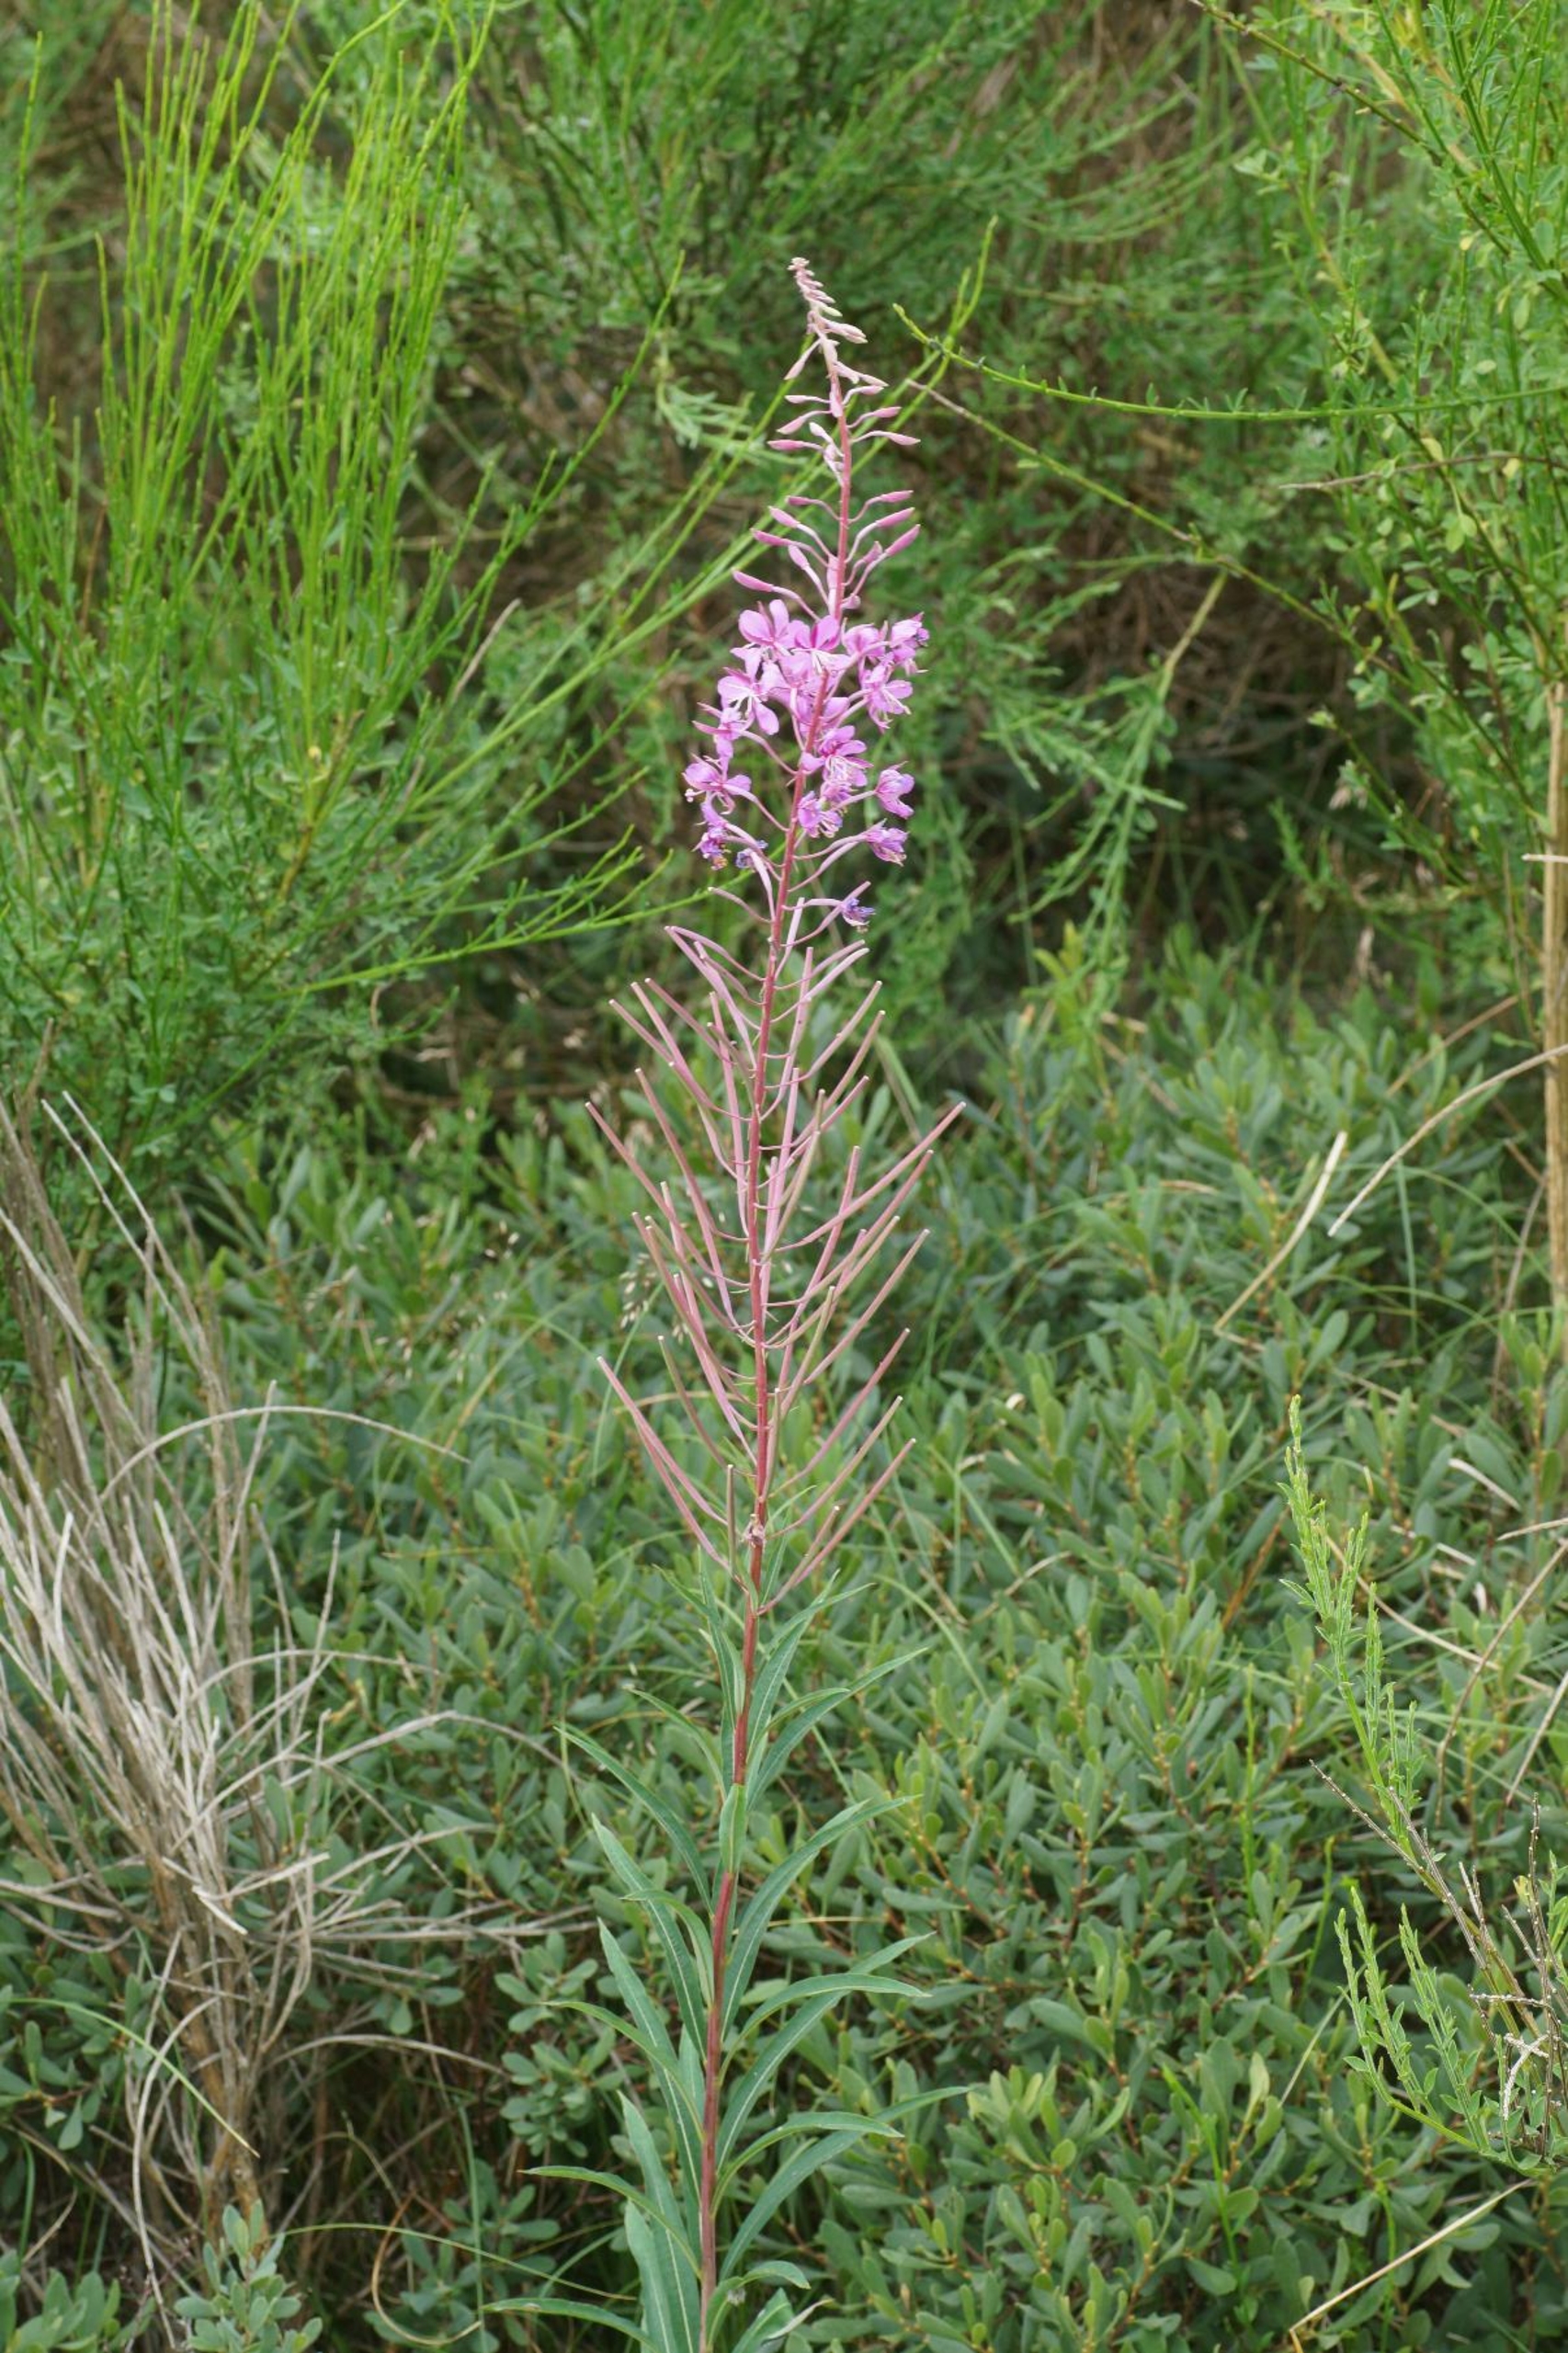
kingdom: Plantae
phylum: Tracheophyta
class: Magnoliopsida
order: Myrtales
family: Onagraceae
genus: Chamaenerion
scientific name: Chamaenerion angustifolium
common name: Gederams
